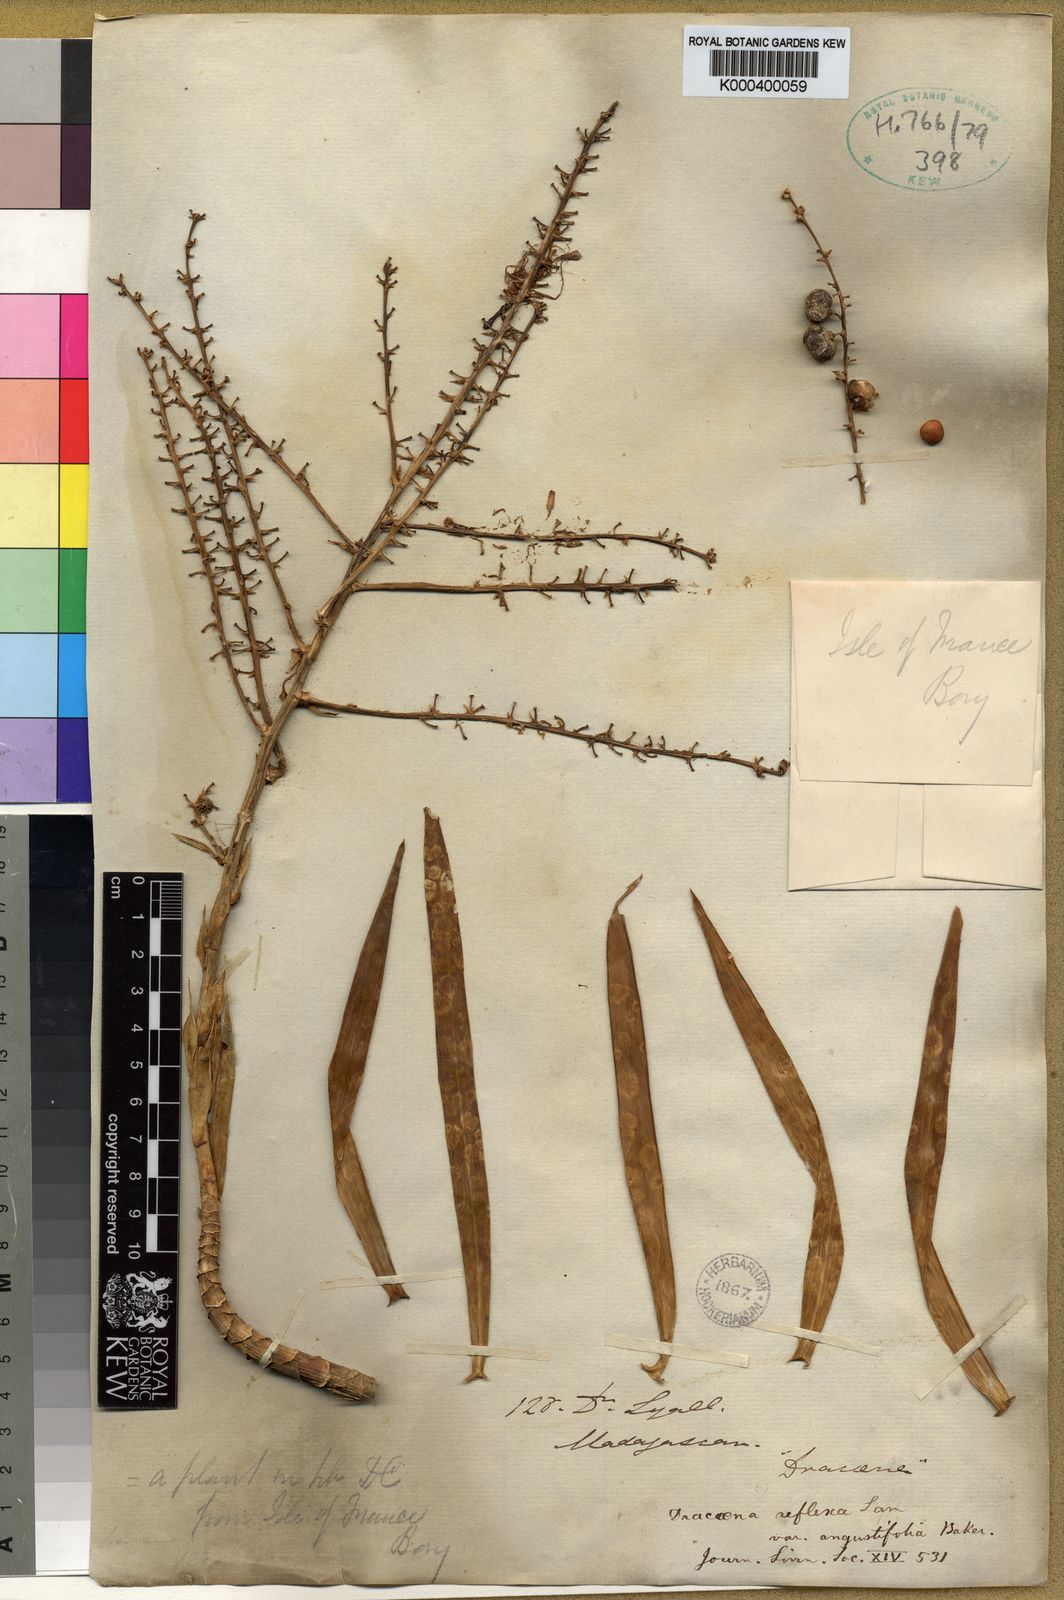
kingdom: Plantae
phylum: Tracheophyta
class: Liliopsida
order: Asparagales
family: Asparagaceae
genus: Dracaena
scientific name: Dracaena reflexa
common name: Song-of-india
